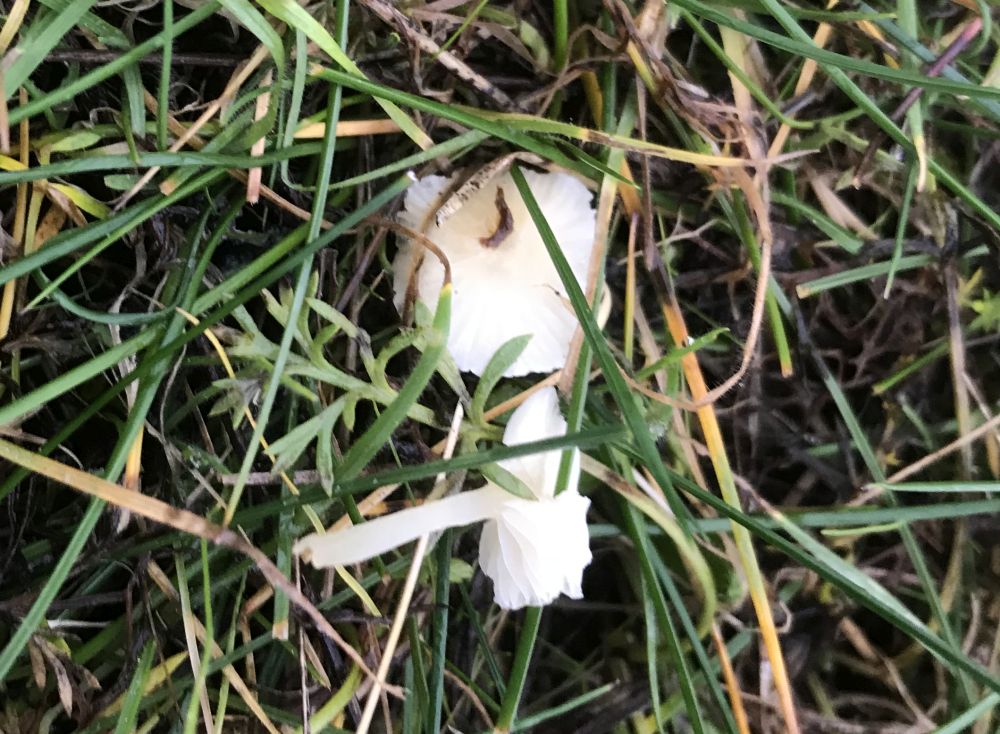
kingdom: Fungi
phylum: Basidiomycota
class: Agaricomycetes
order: Agaricales
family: Mycenaceae
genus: Atheniella
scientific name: Atheniella flavoalba
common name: gulhvid huesvamp
